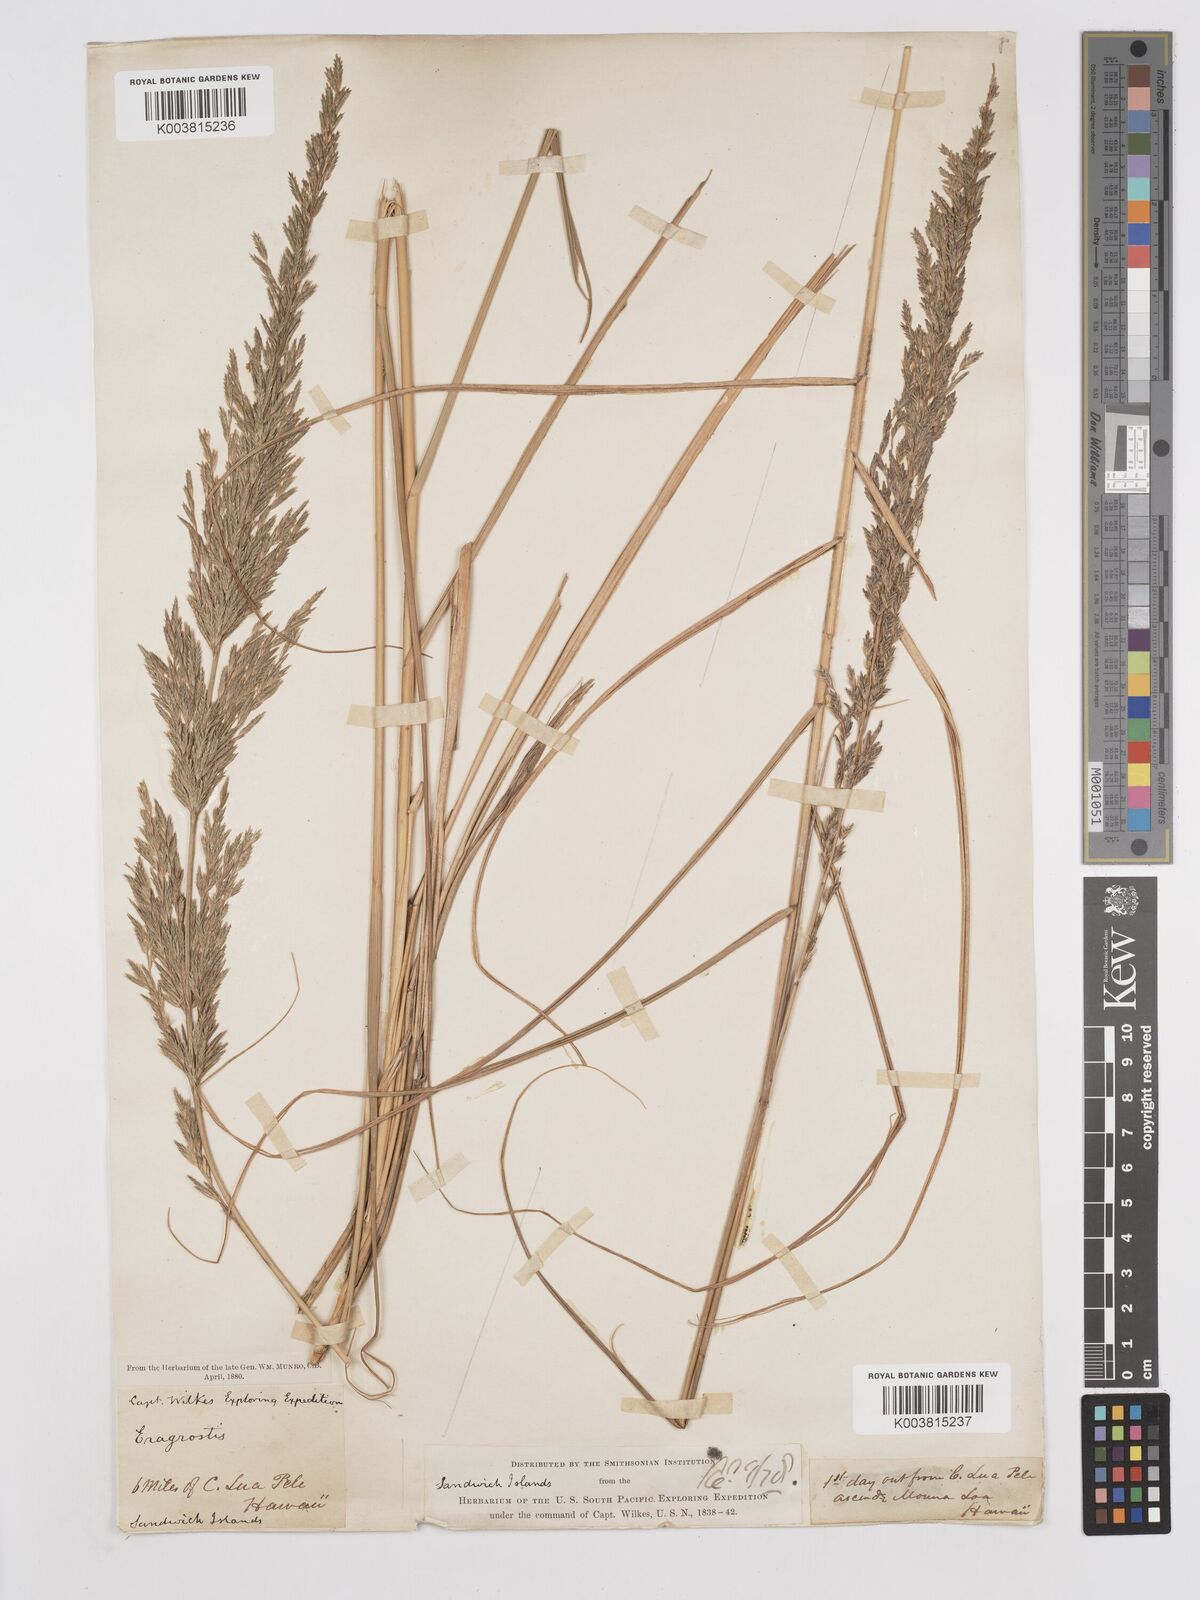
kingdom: Plantae
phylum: Tracheophyta
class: Liliopsida
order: Poales
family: Poaceae
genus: Eragrostis
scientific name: Eragrostis variabilis
